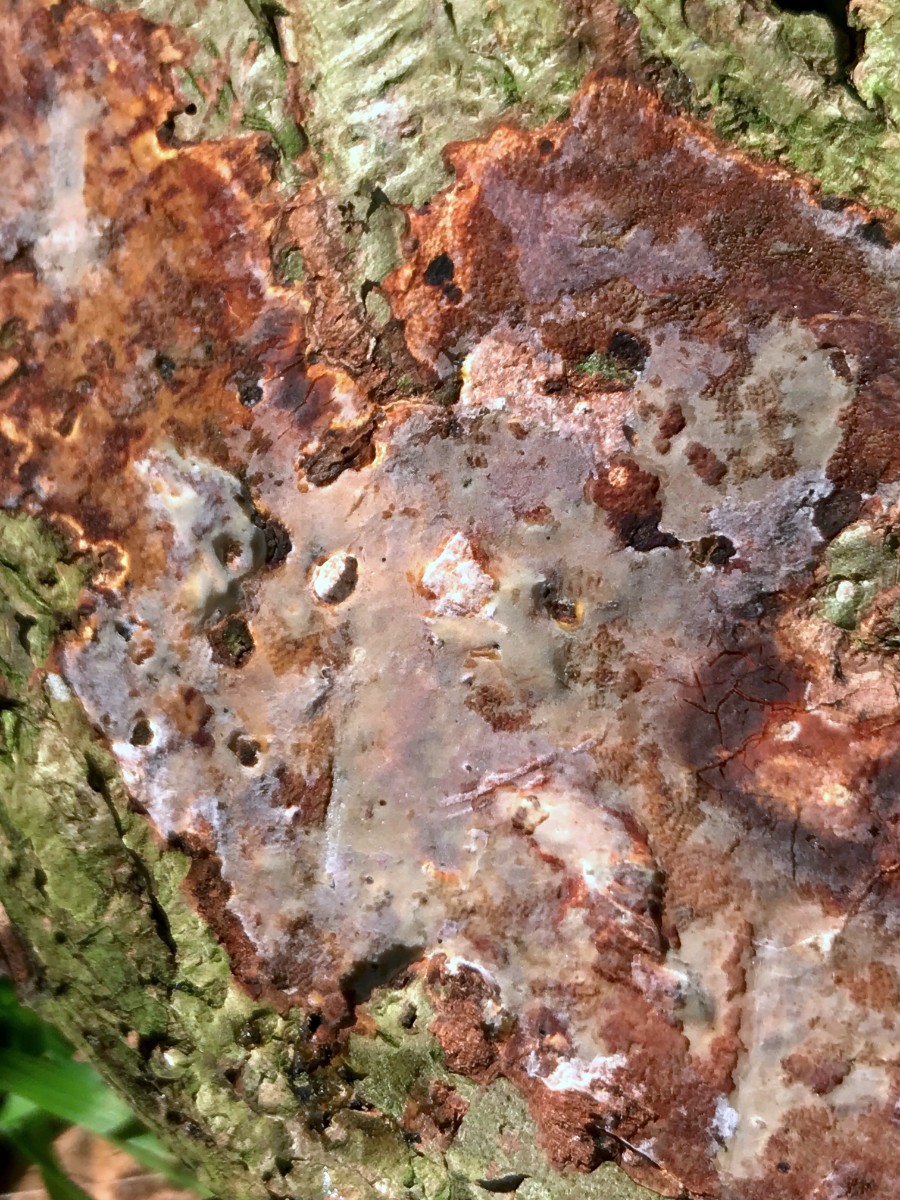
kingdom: Fungi
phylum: Basidiomycota
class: Agaricomycetes
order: Corticiales
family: Vuilleminiaceae
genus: Vuilleminia
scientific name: Vuilleminia coryli
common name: hassel-barksprænger
